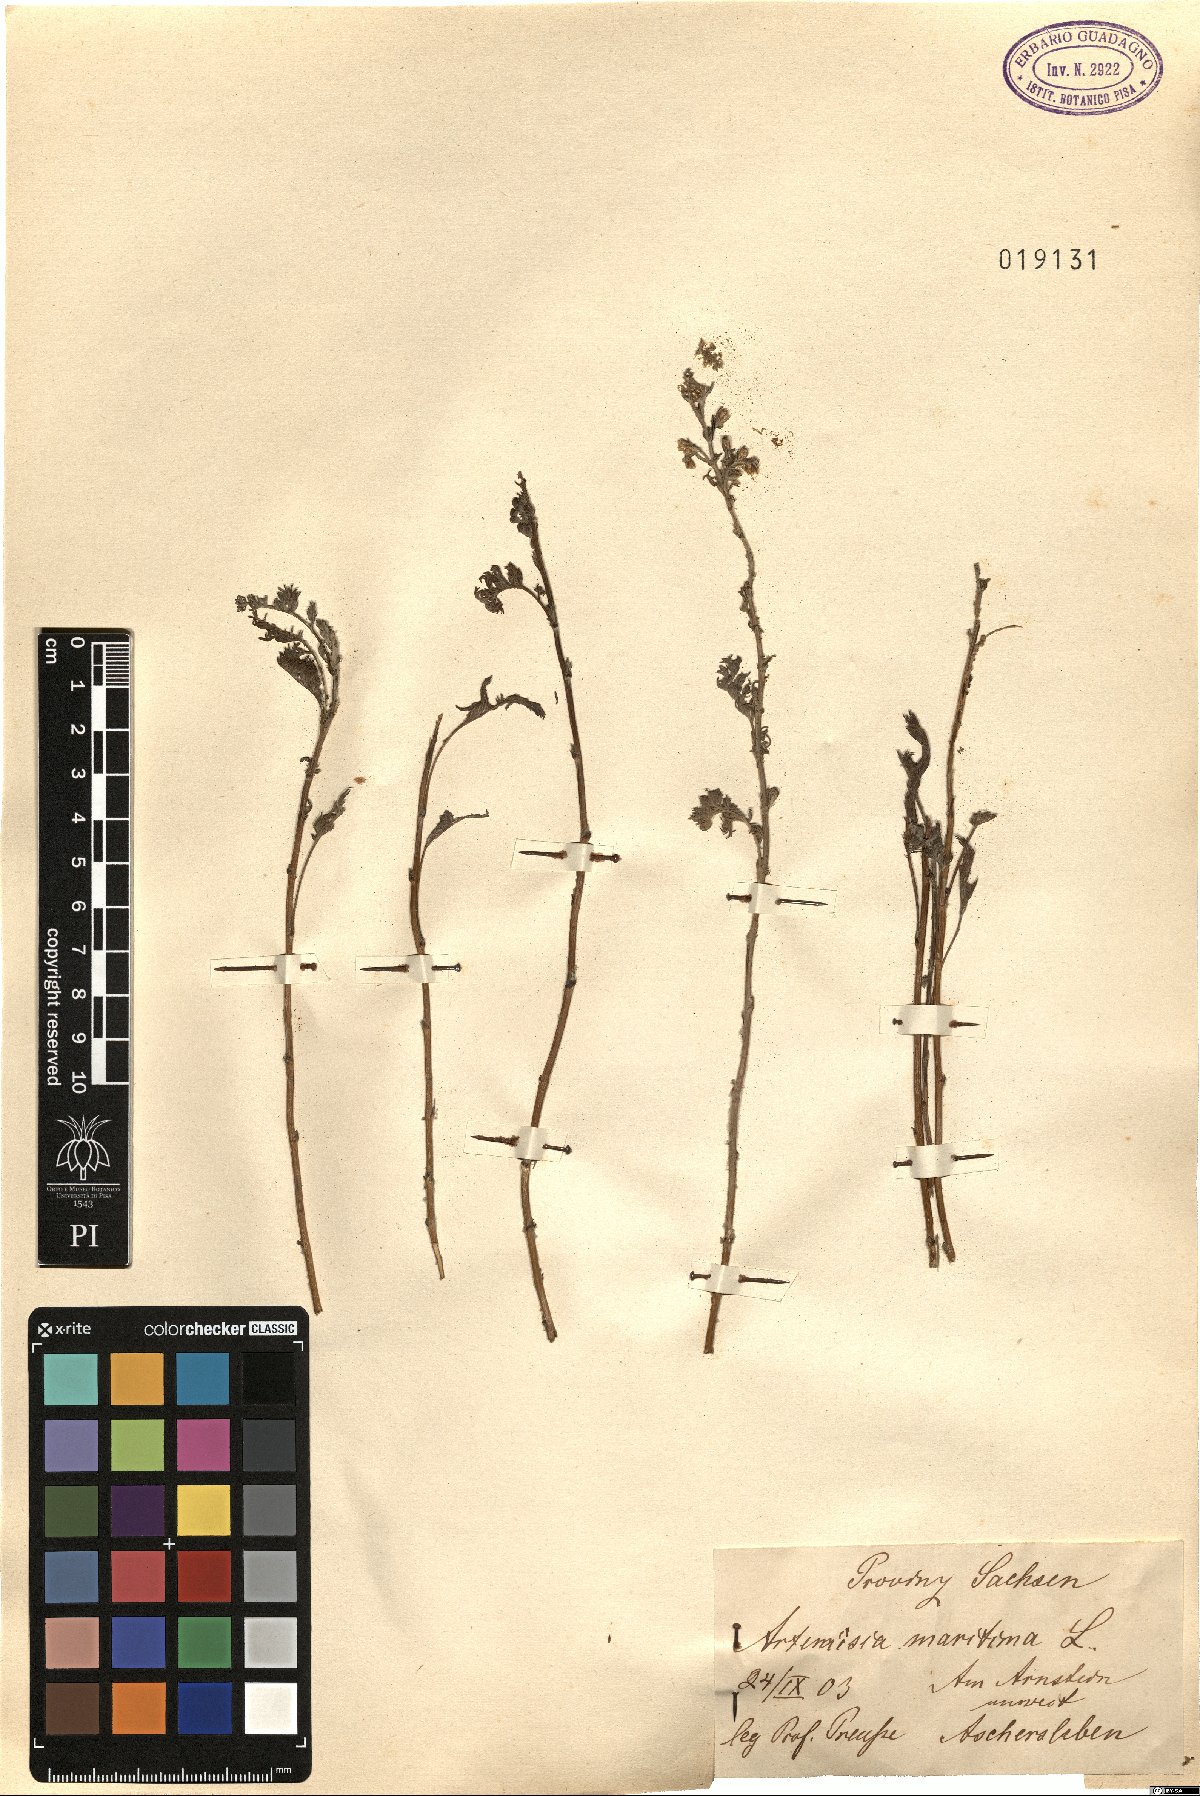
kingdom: Plantae
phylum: Tracheophyta
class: Magnoliopsida
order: Asterales
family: Asteraceae
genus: Artemisia
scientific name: Artemisia maritima
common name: Wormseed
